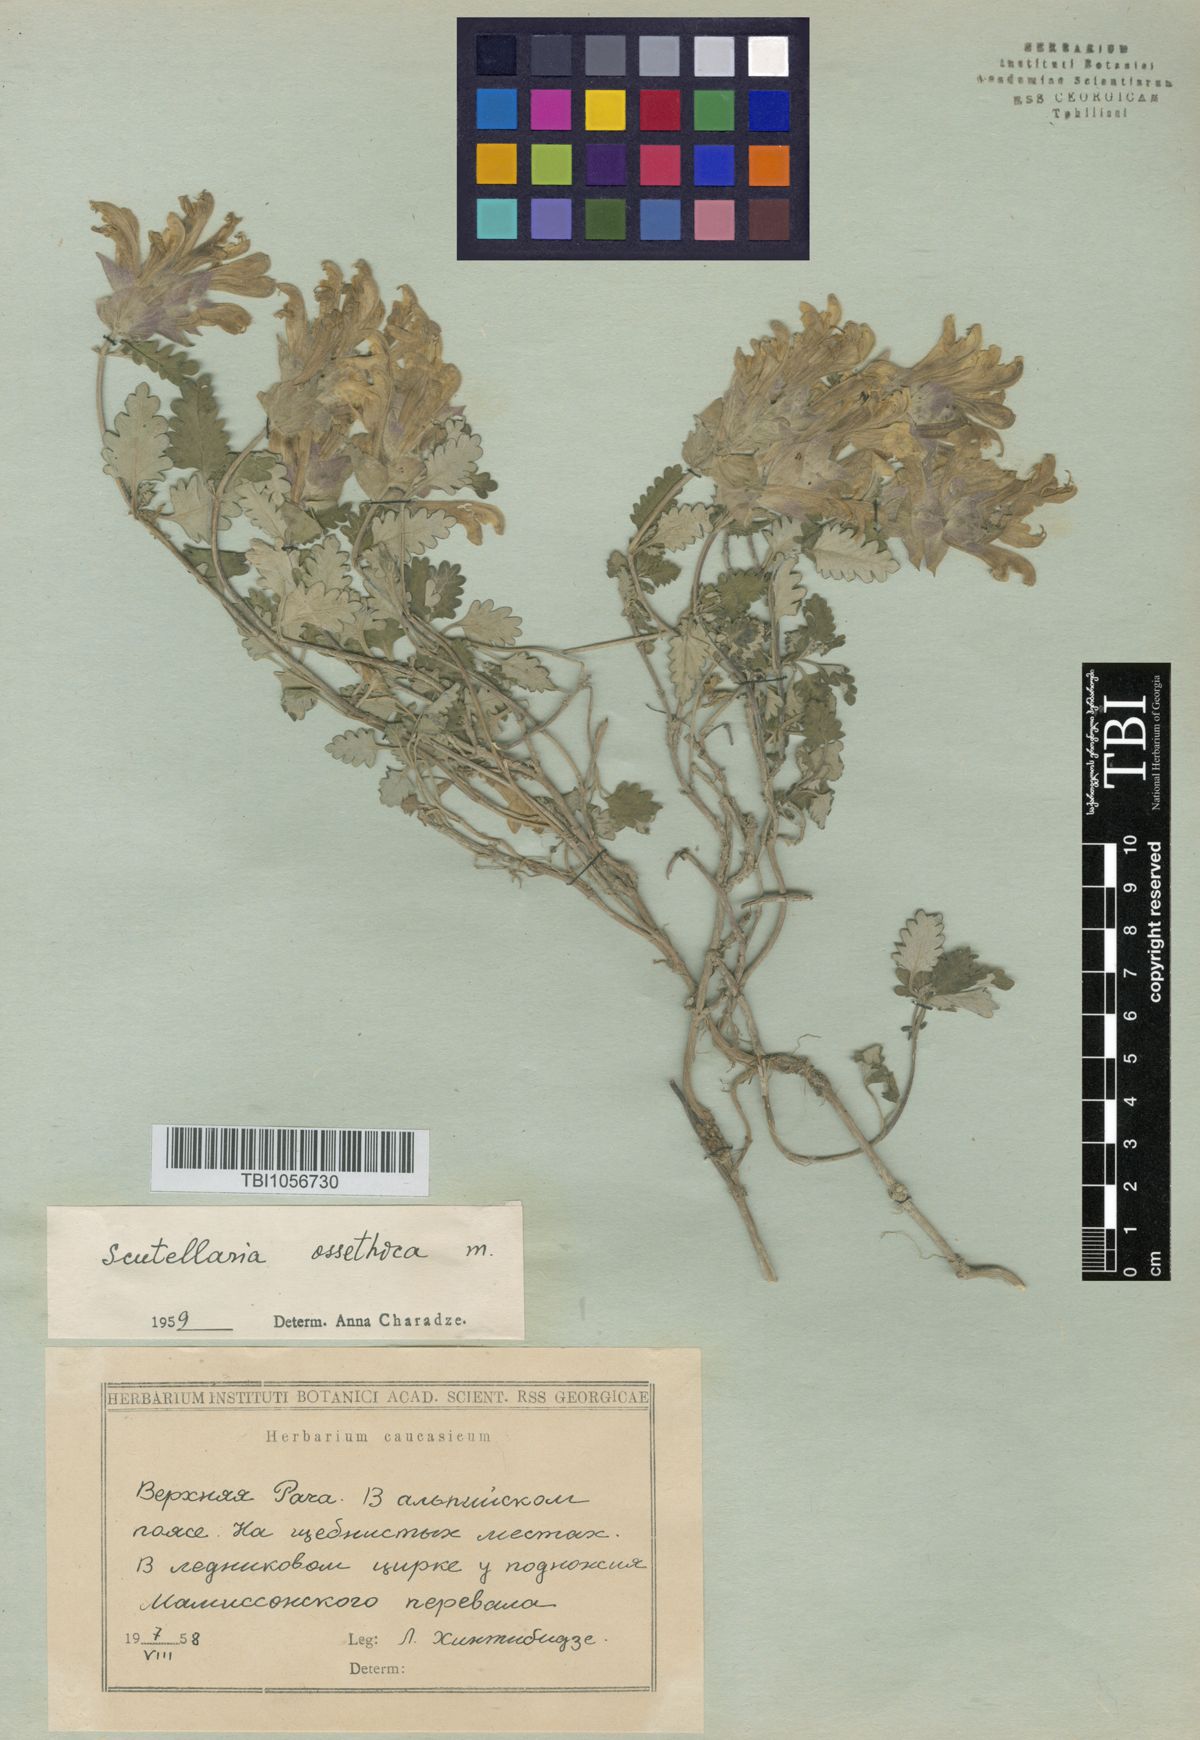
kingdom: Plantae
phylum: Tracheophyta
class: Magnoliopsida
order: Lamiales
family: Lamiaceae
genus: Scutellaria
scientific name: Scutellaria ossethica
